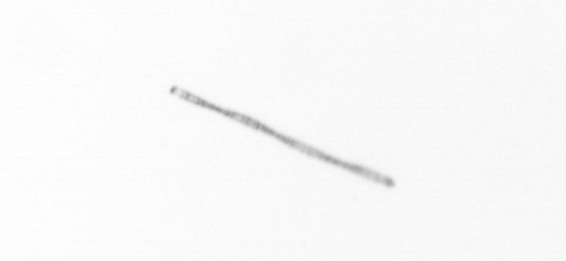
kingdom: Chromista
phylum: Ochrophyta
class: Bacillariophyceae
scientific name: Bacillariophyceae
